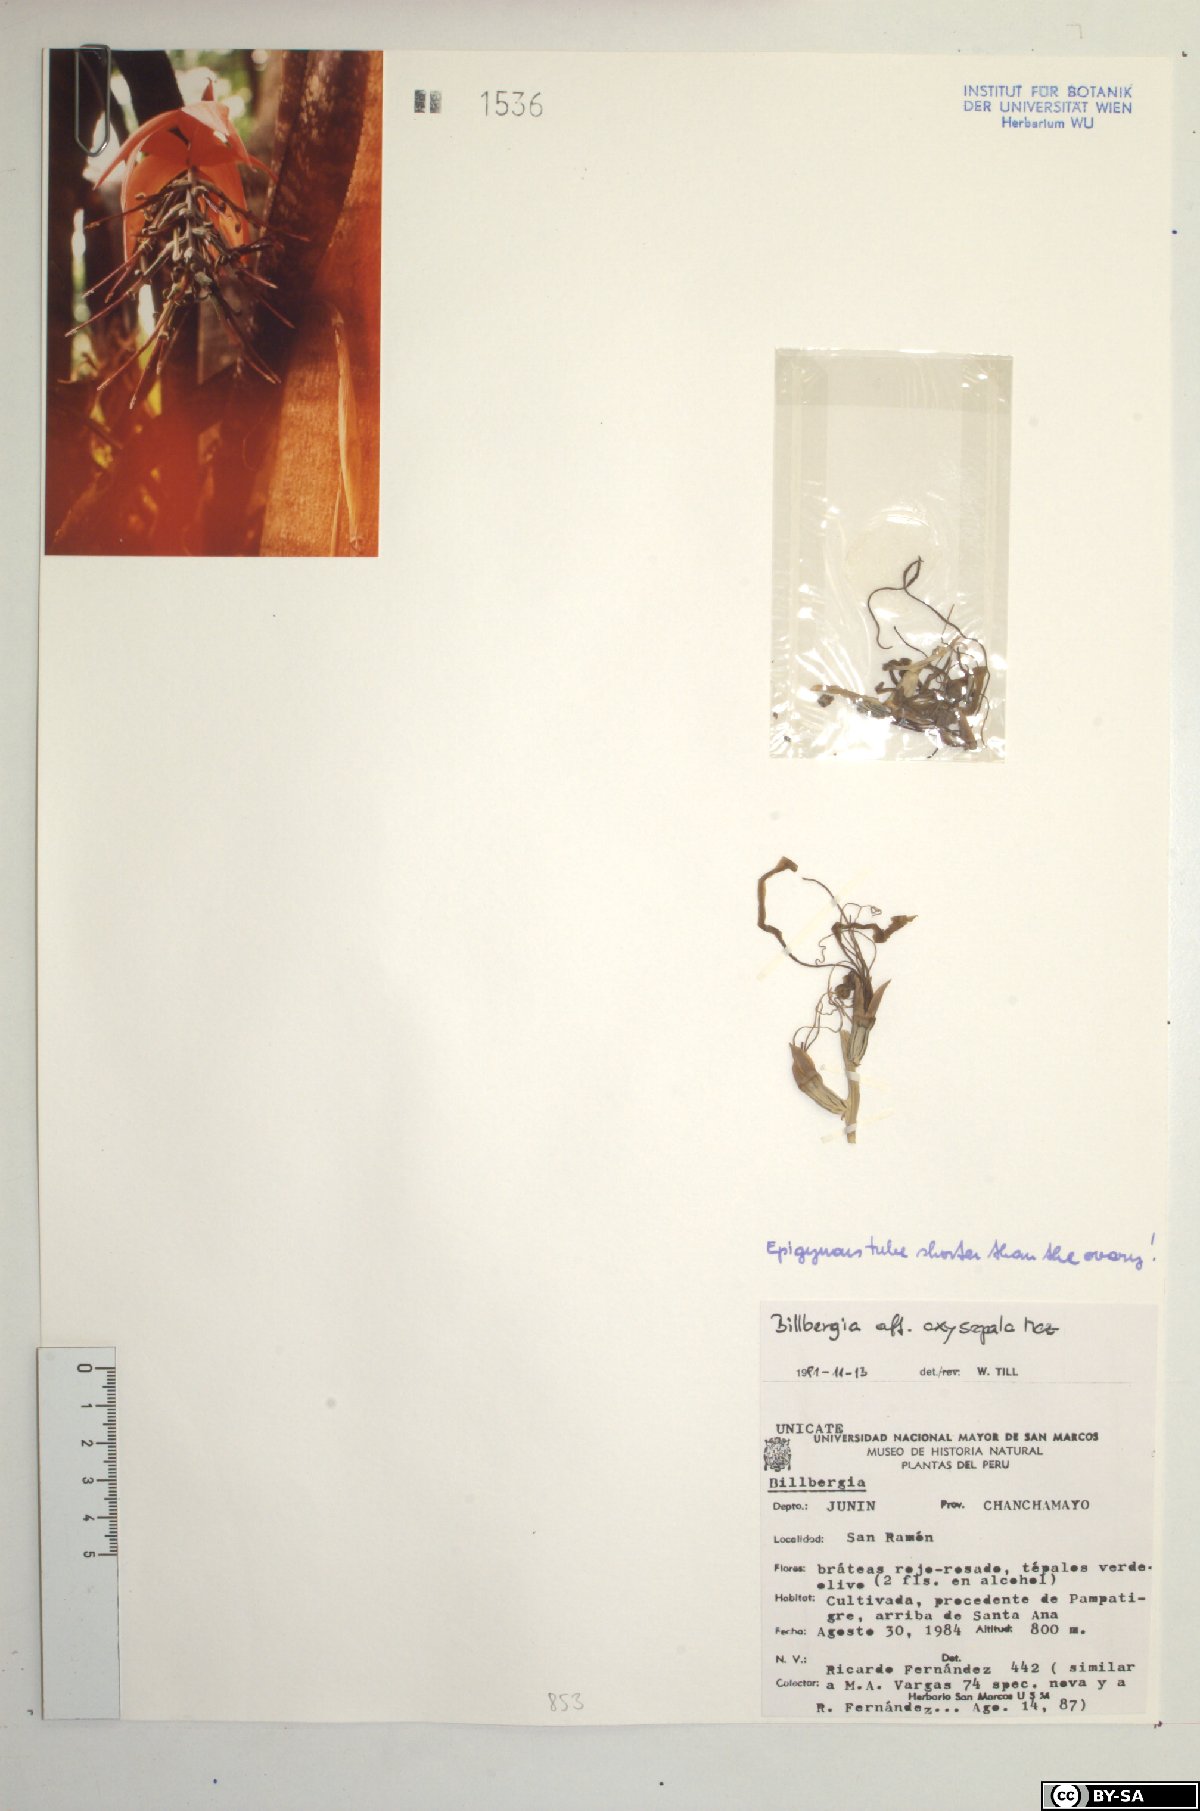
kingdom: Plantae
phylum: Tracheophyta
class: Liliopsida
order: Poales
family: Bromeliaceae
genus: Billbergia
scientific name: Billbergia oxysepala
